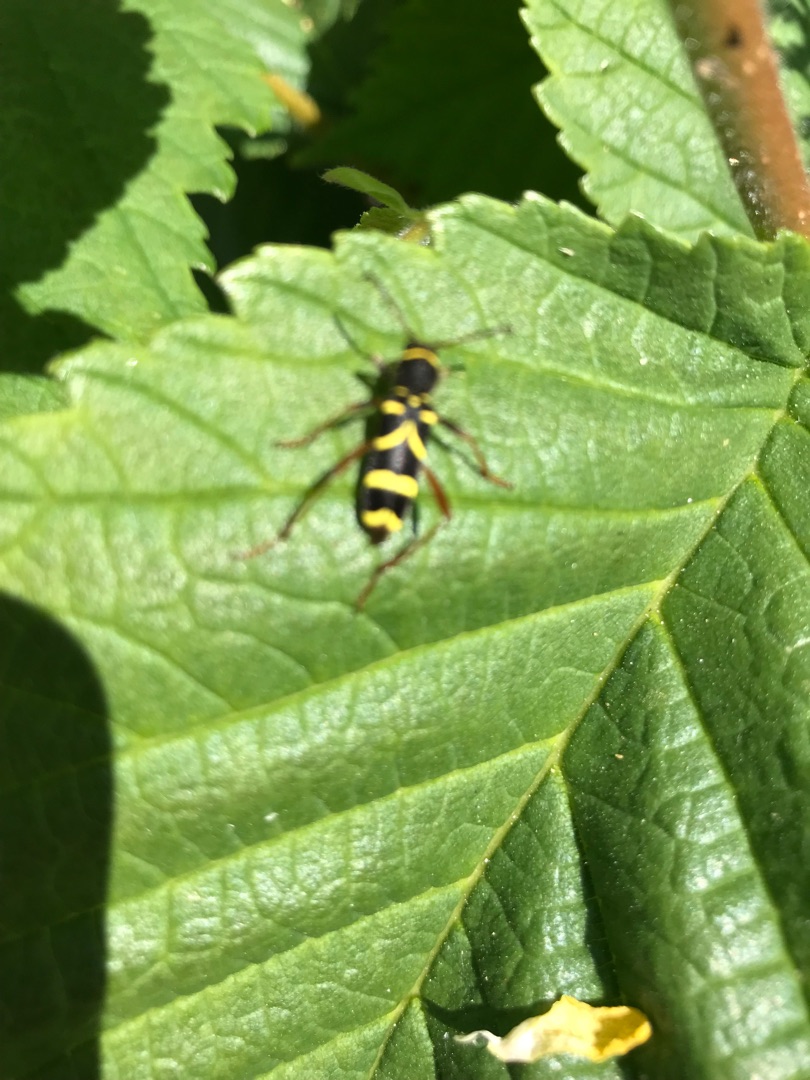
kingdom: Animalia
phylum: Arthropoda
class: Insecta
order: Coleoptera
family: Cerambycidae
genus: Clytus
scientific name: Clytus arietis
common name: Lille hvepsebuk
